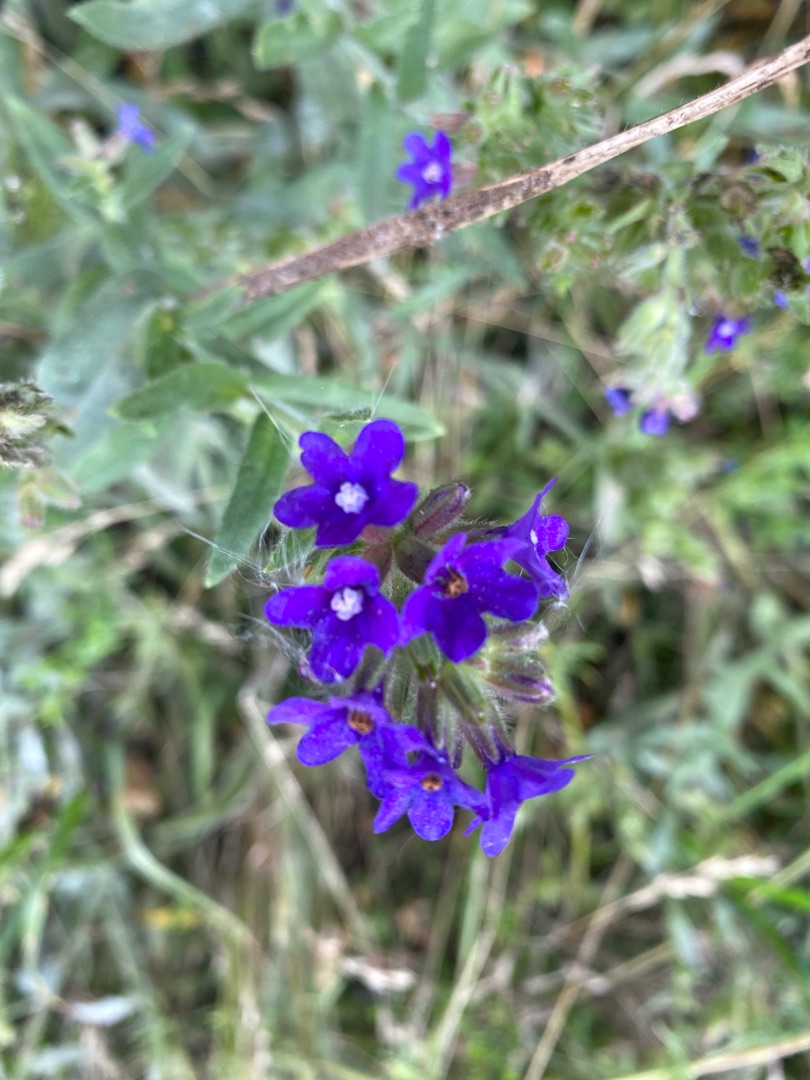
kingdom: Plantae
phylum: Tracheophyta
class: Magnoliopsida
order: Boraginales
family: Boraginaceae
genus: Anchusa
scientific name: Anchusa officinalis
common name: Læge-oksetunge
